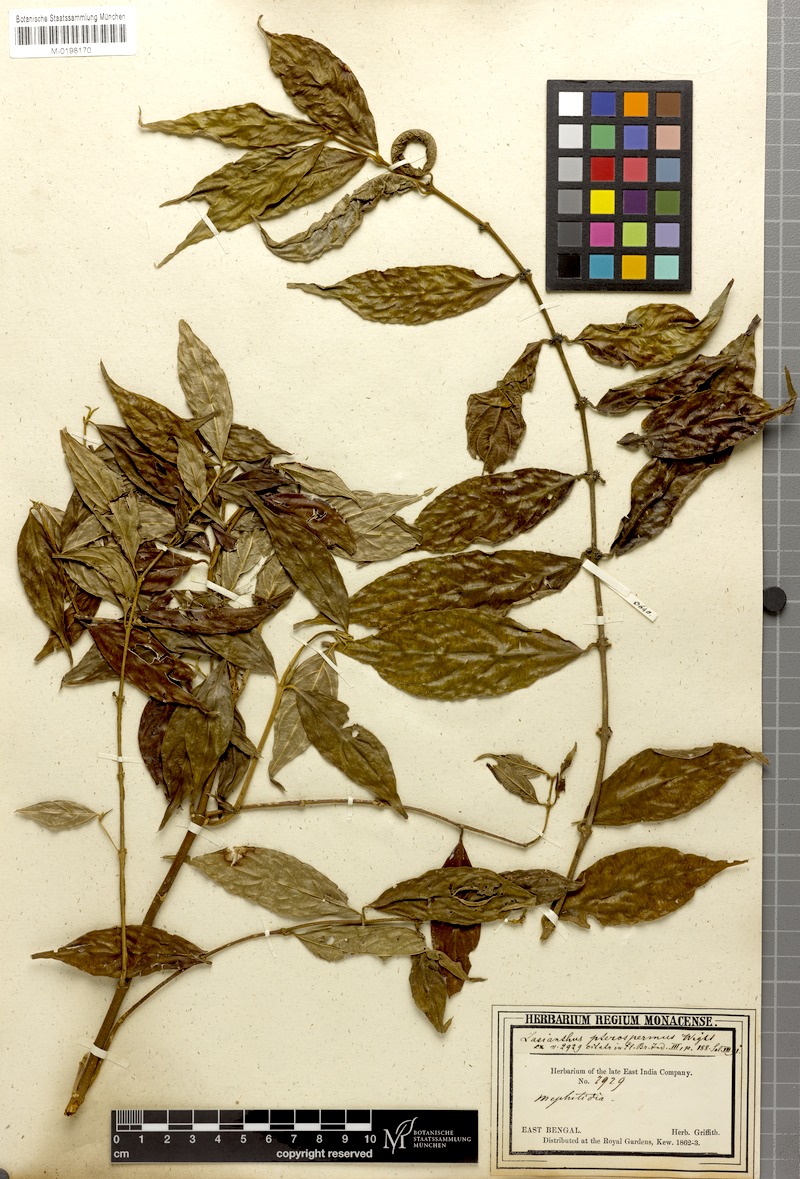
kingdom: Plantae
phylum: Tracheophyta
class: Magnoliopsida
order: Gentianales
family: Rubiaceae
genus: Lasianthus
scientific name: Lasianthus venosus
